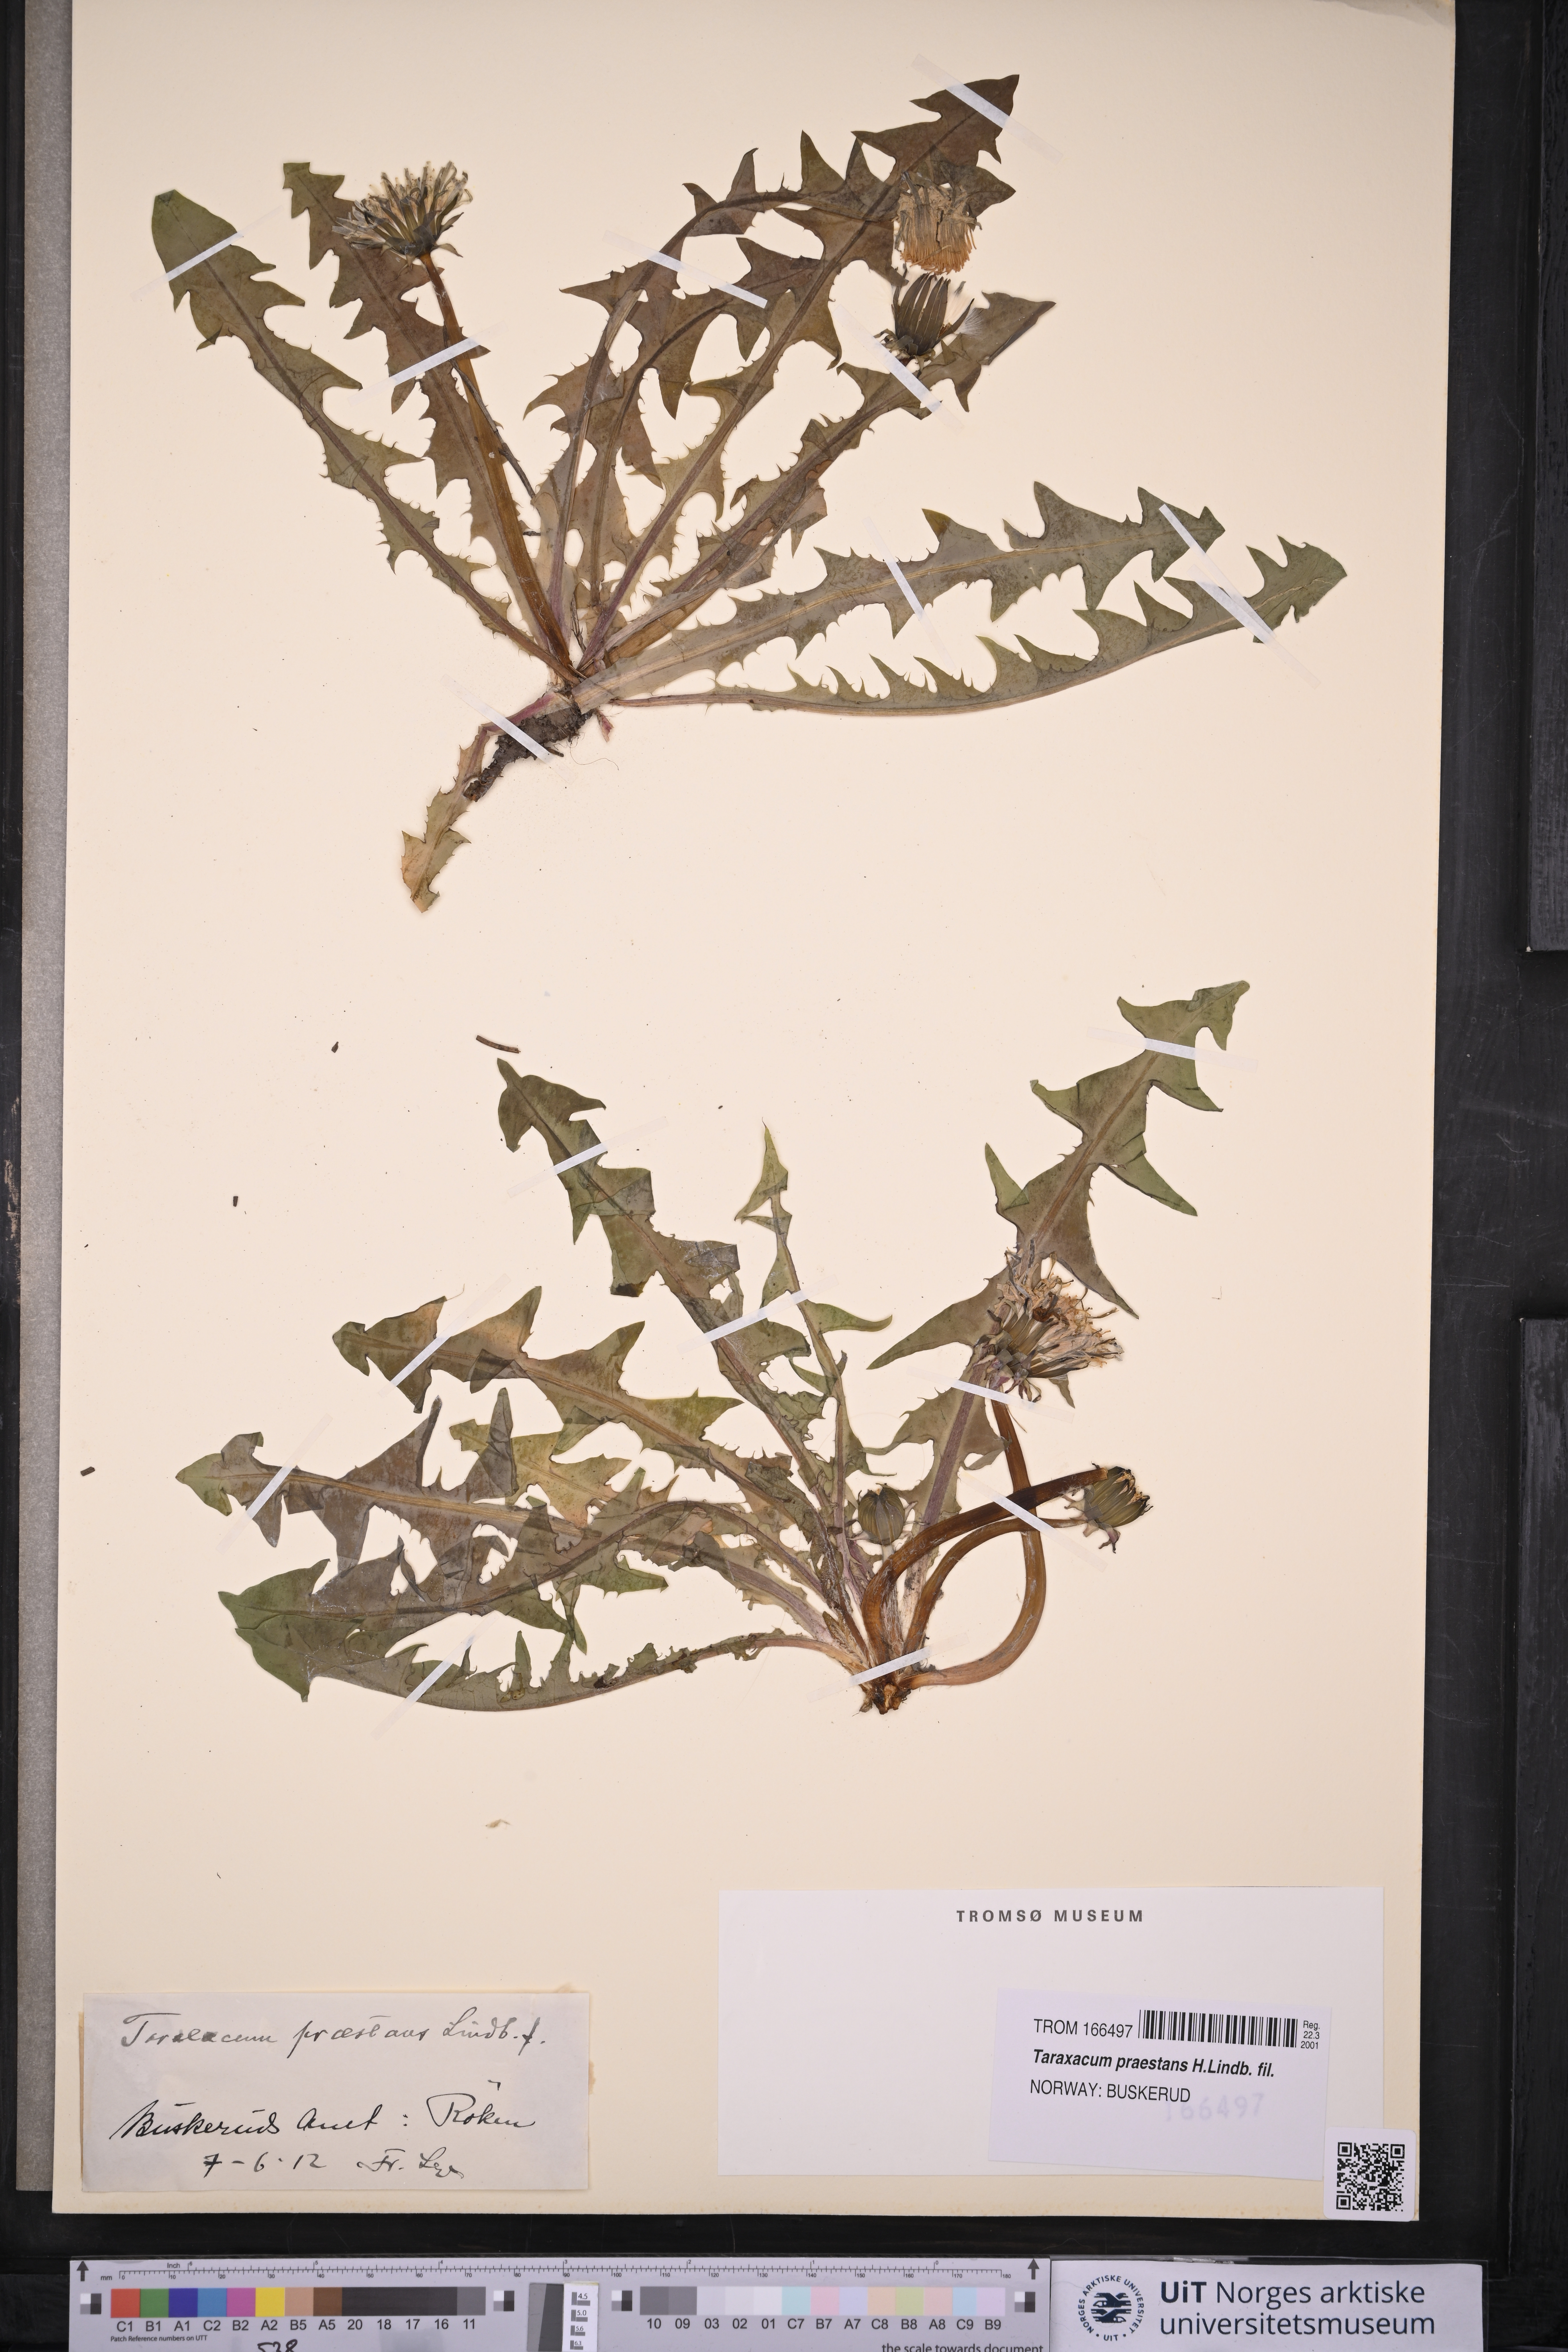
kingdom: Plantae
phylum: Tracheophyta
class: Magnoliopsida
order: Asterales
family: Asteraceae
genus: Taraxacum
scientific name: Taraxacum praestans
